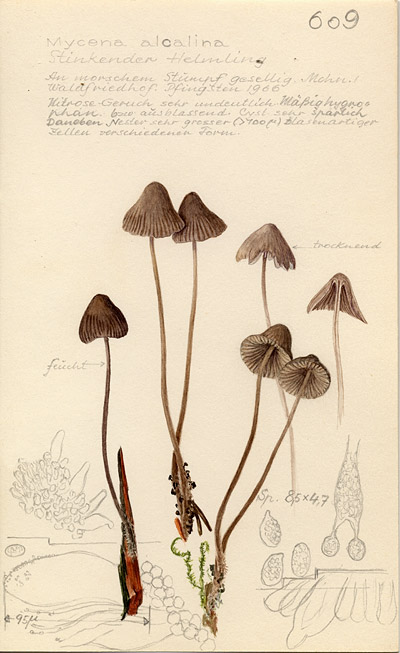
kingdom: Fungi
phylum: Basidiomycota
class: Agaricomycetes
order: Agaricales
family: Mycenaceae
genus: Mycena
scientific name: Mycena alcalina
